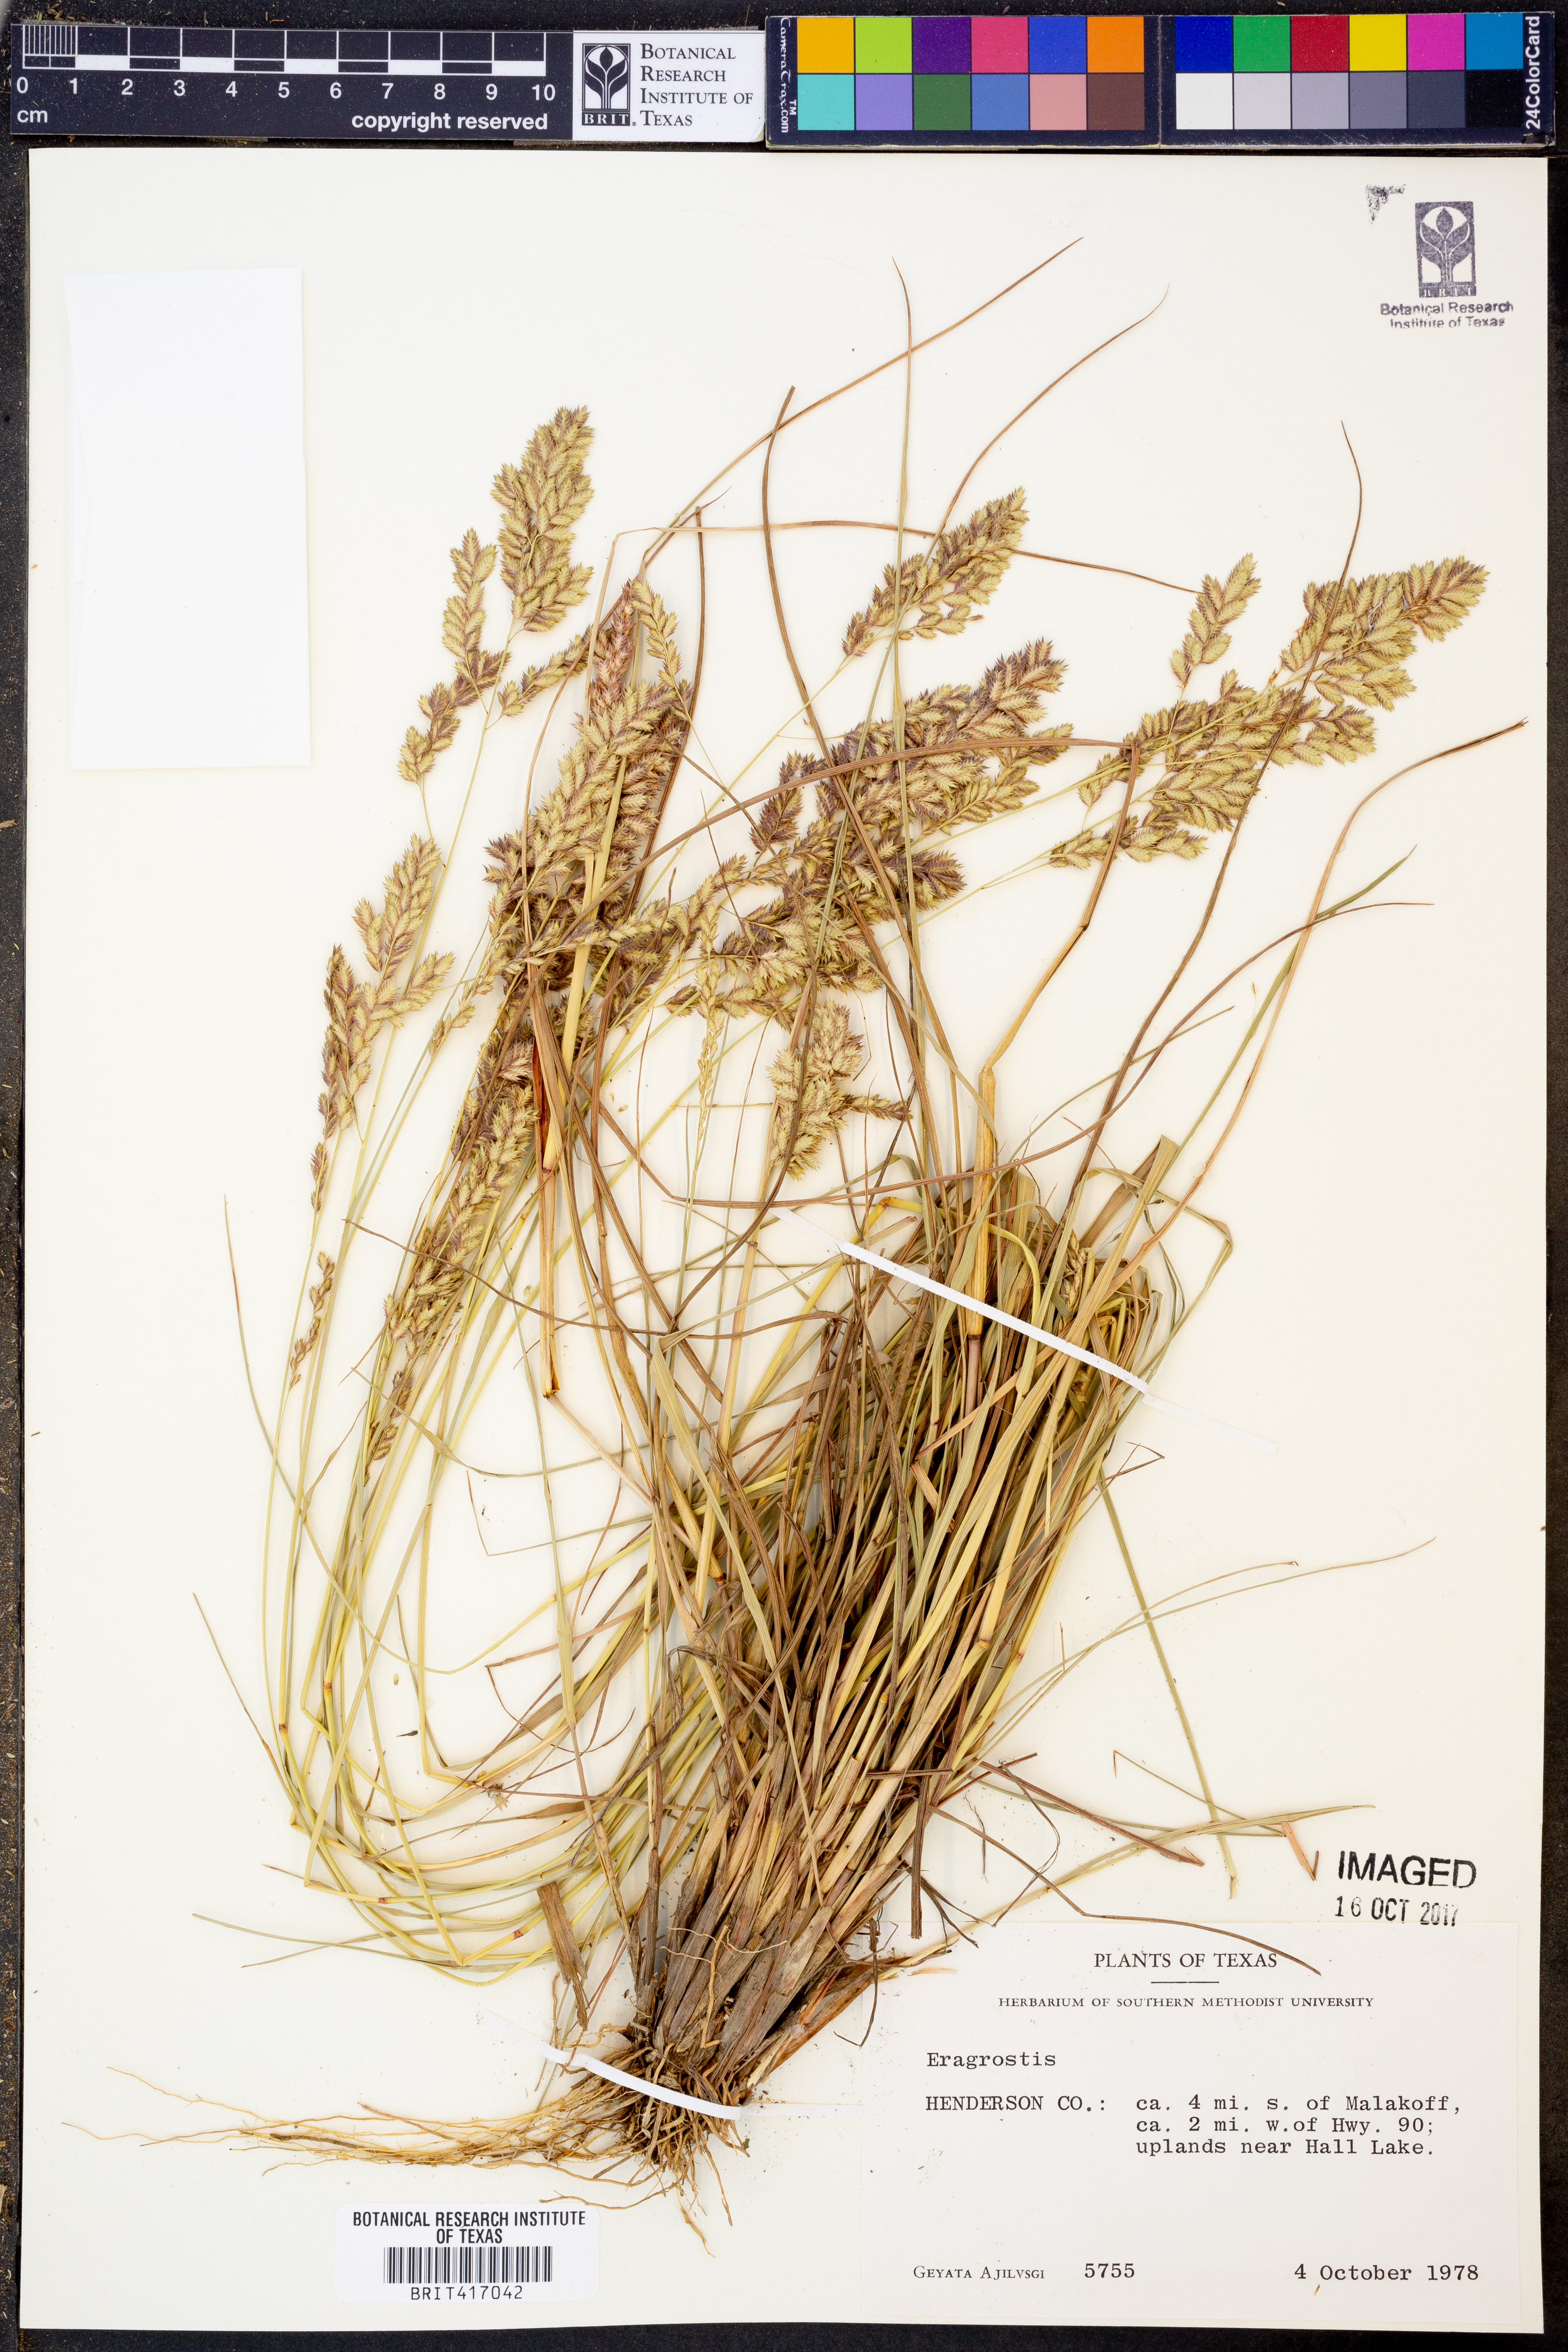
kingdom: Plantae
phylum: Tracheophyta
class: Liliopsida
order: Poales
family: Poaceae
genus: Eragrostis
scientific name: Eragrostis
